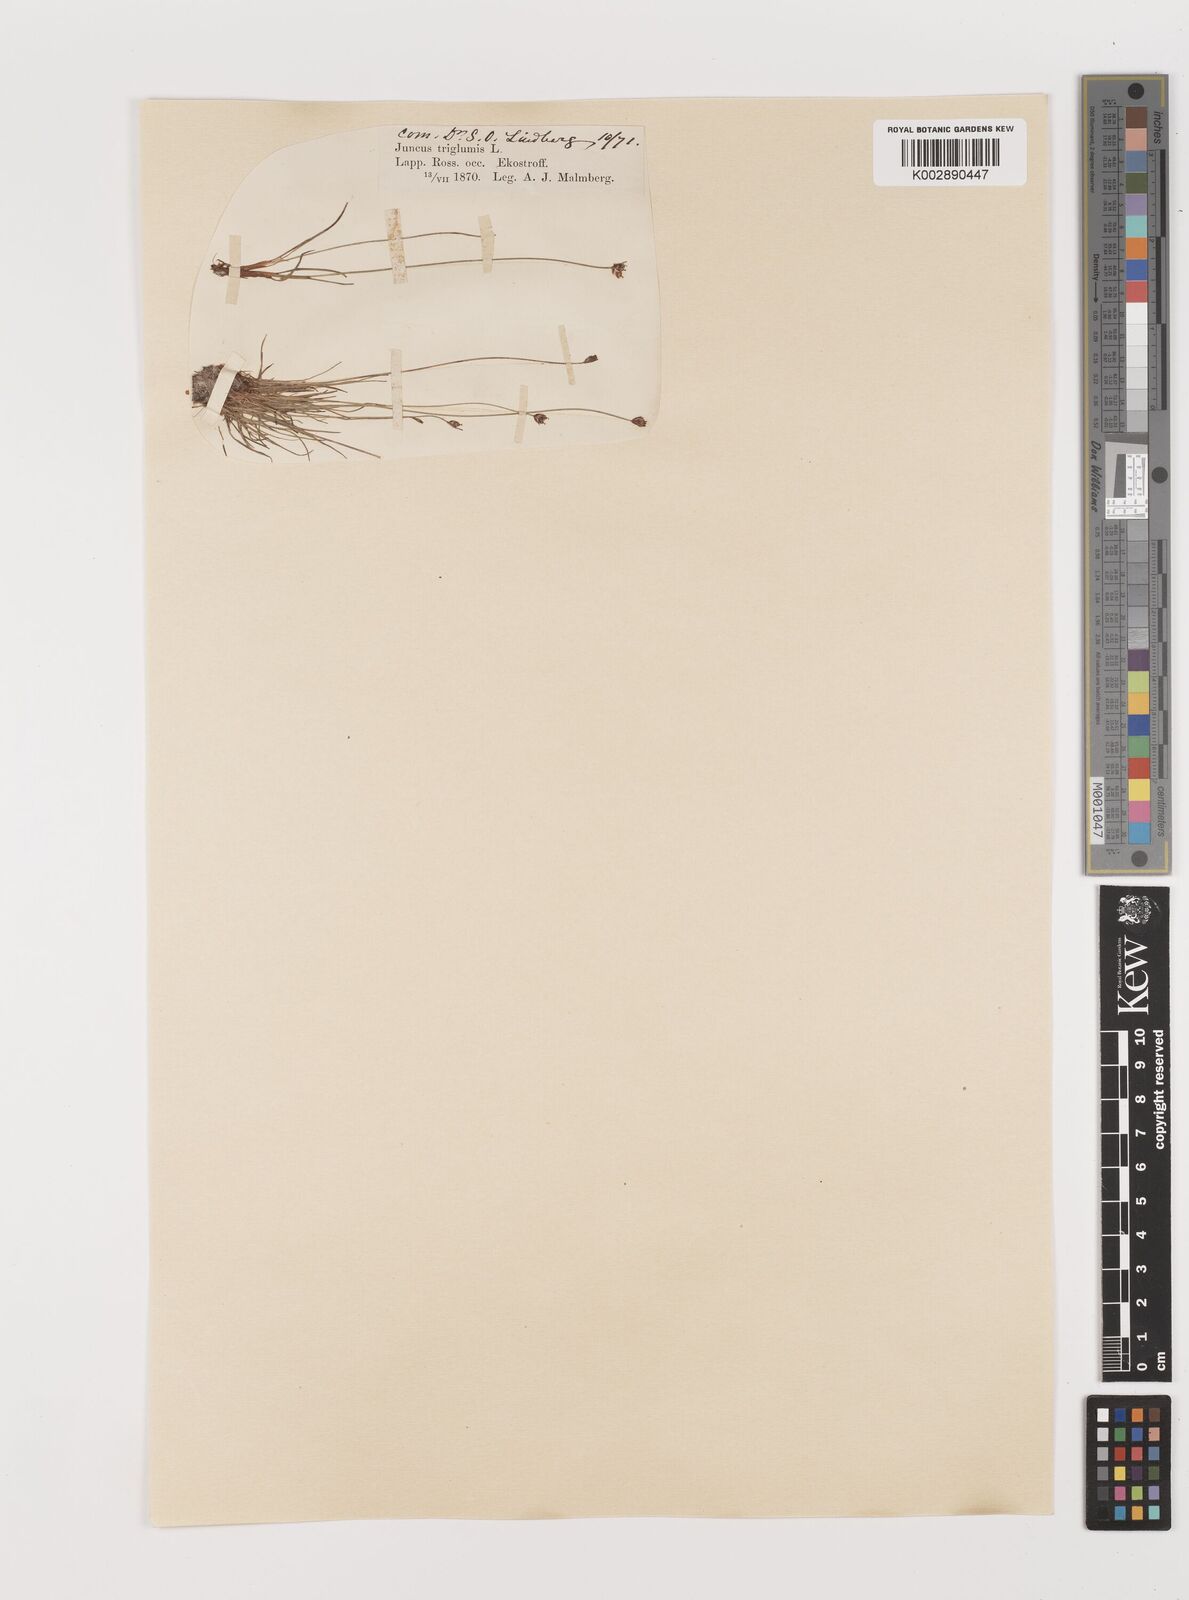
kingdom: Plantae
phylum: Tracheophyta
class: Liliopsida
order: Poales
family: Juncaceae
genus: Juncus
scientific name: Juncus triglumis
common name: Three-flowered rush
